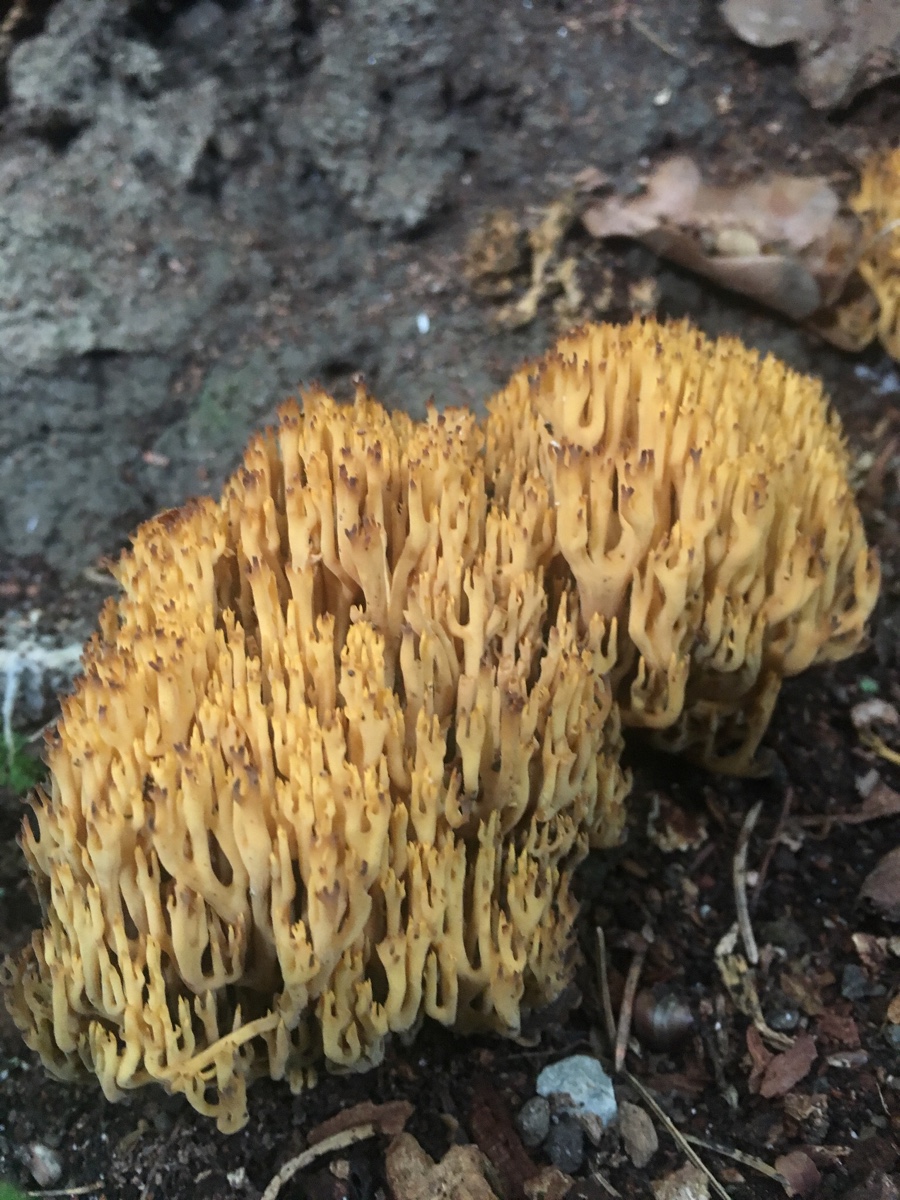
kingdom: Fungi
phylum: Basidiomycota
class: Agaricomycetes
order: Gomphales
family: Gomphaceae
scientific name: Gomphaceae
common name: køllekantarelfamilien
